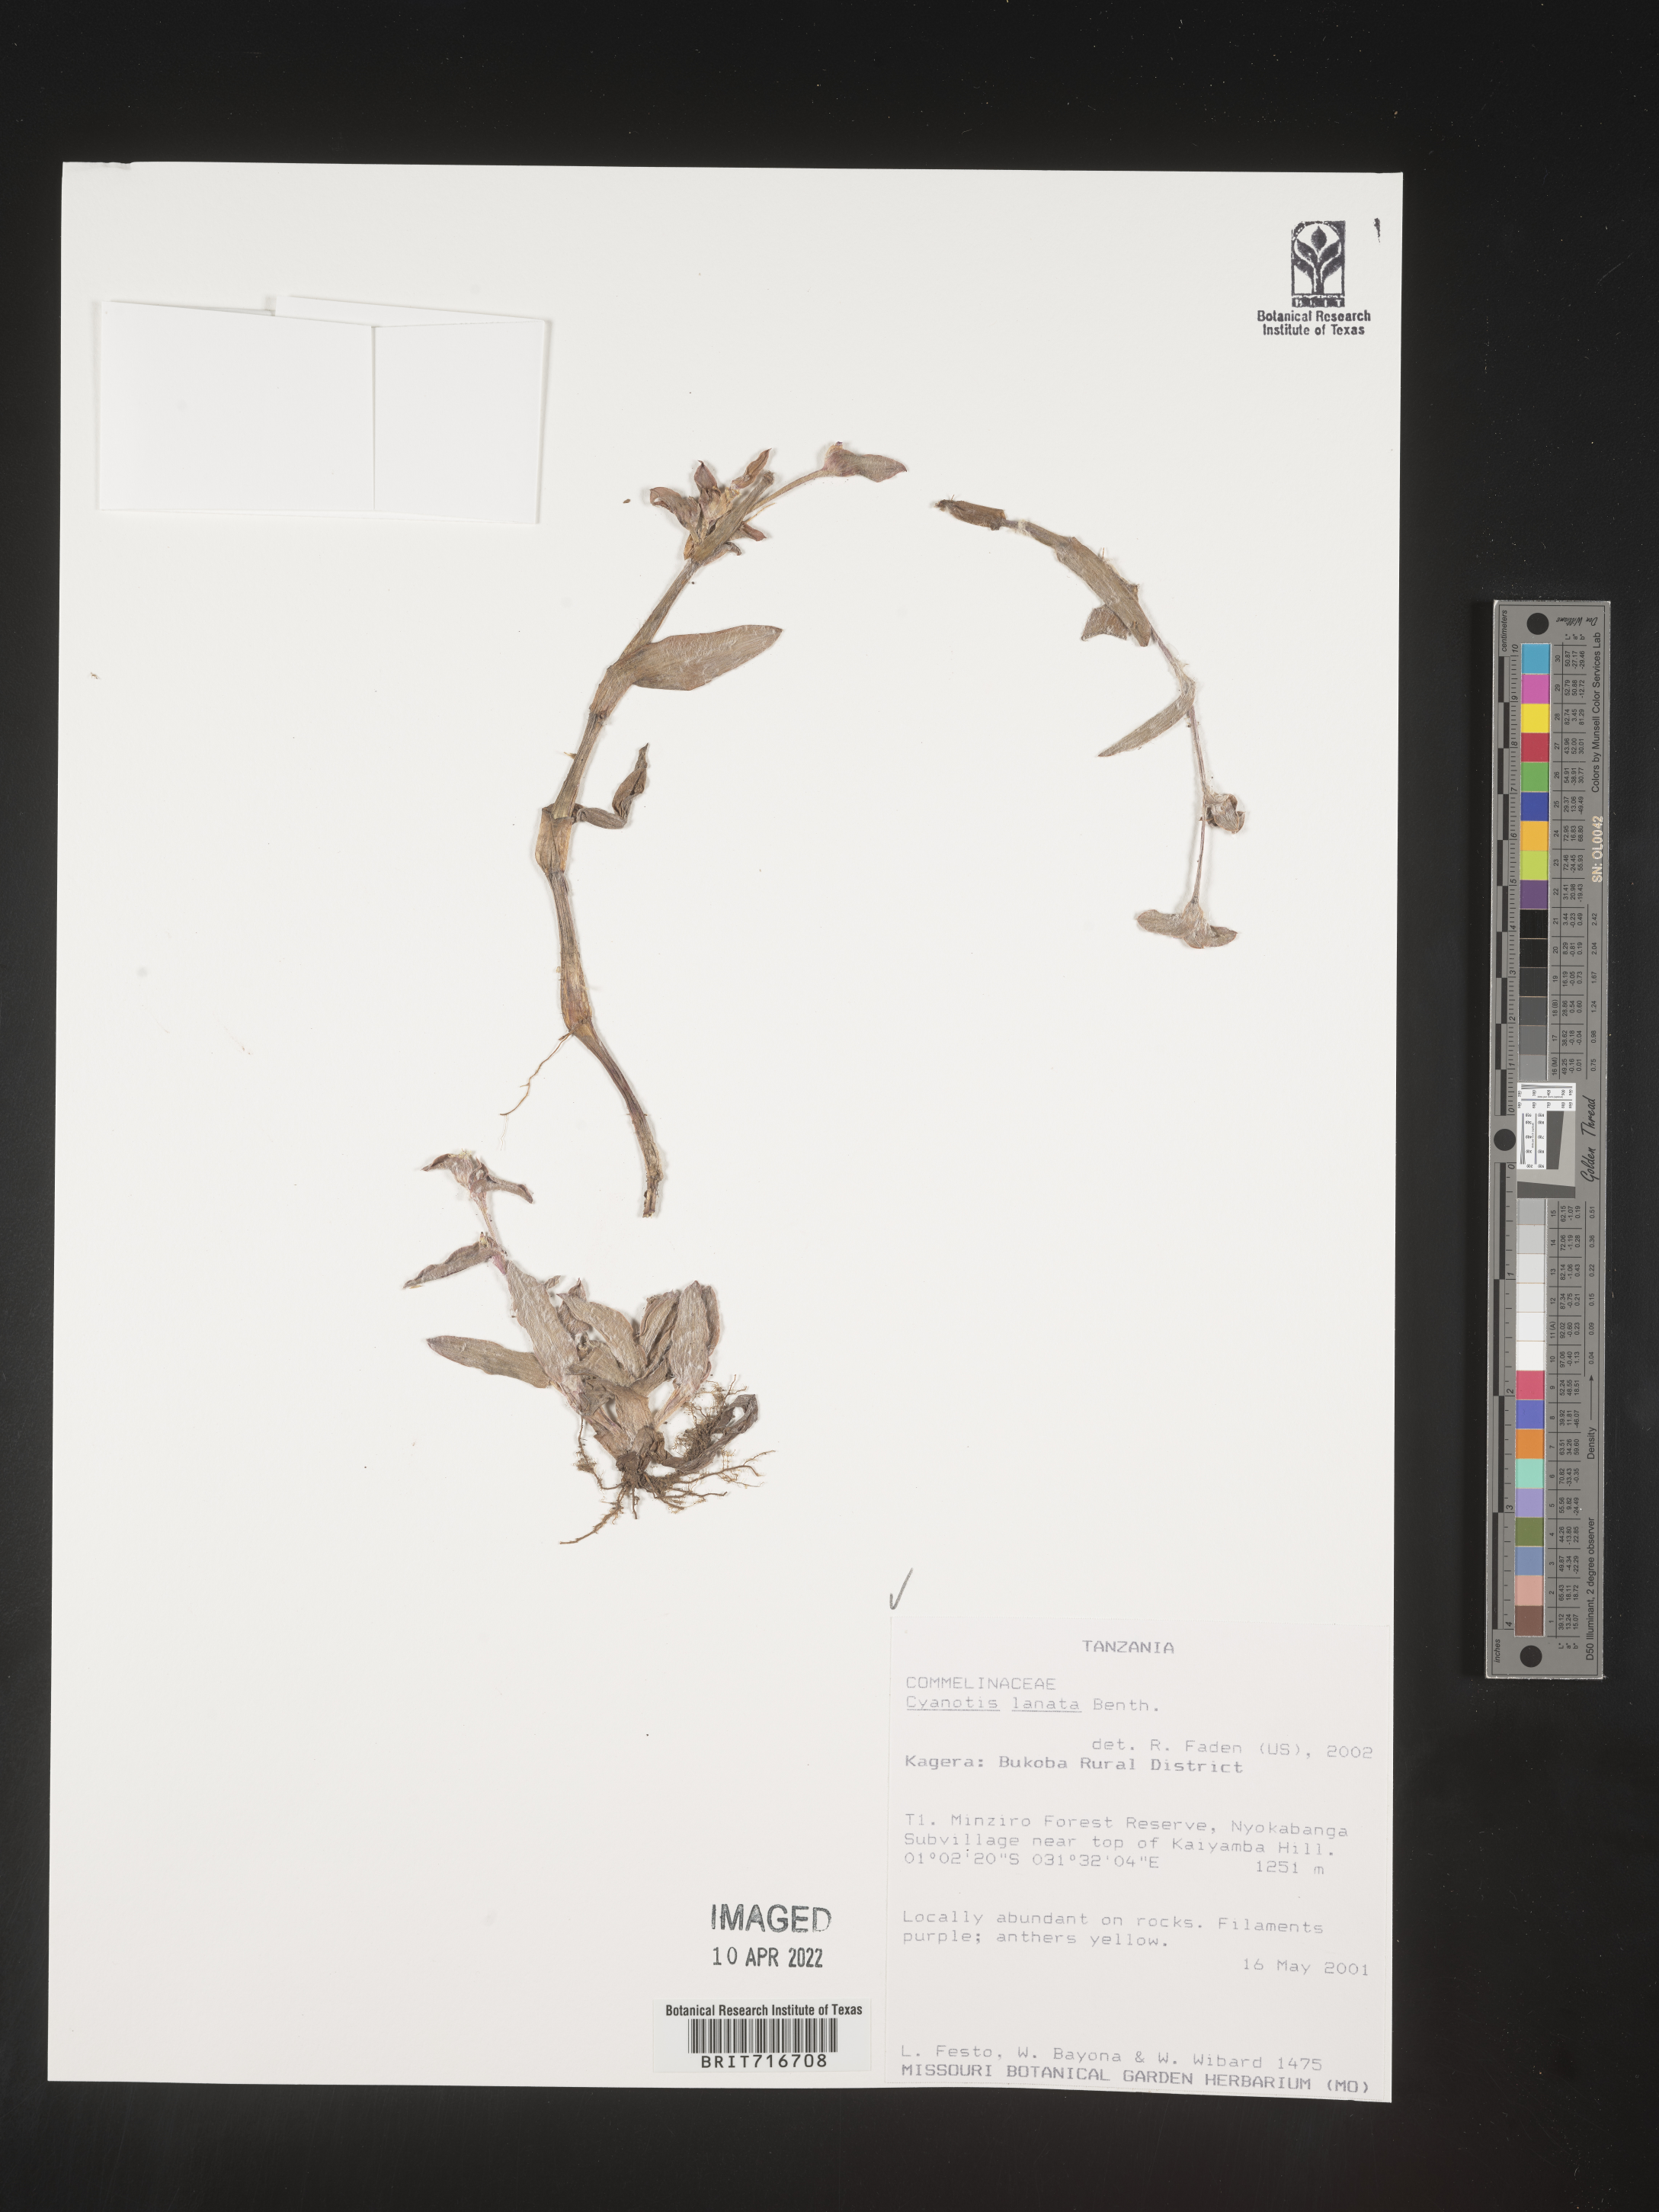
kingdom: Plantae
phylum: Tracheophyta
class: Liliopsida
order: Commelinales
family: Commelinaceae
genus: Cyanotis
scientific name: Cyanotis
